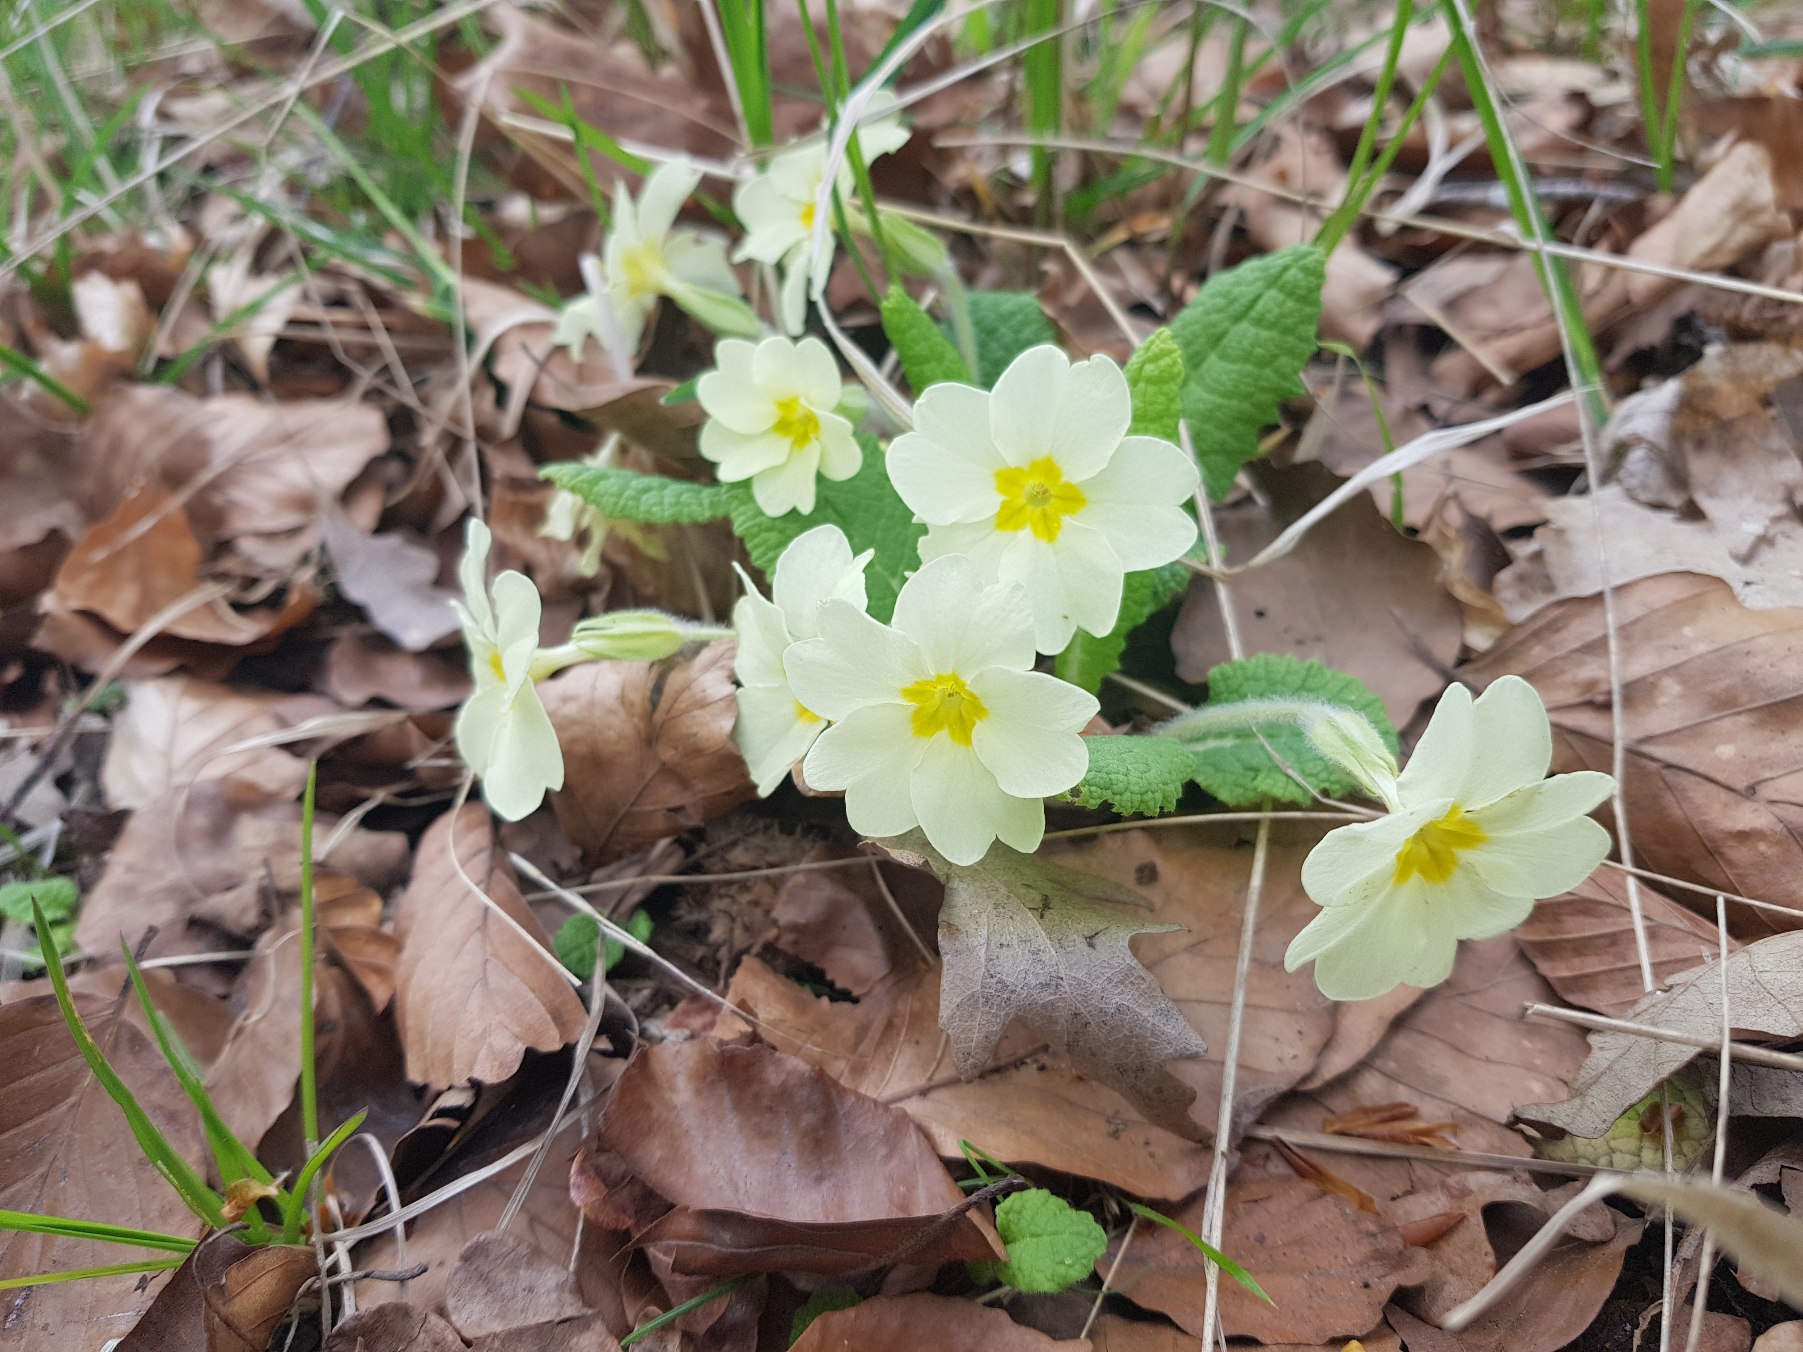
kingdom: Plantae
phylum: Tracheophyta
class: Magnoliopsida
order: Ericales
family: Primulaceae
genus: Primula
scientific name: Primula vulgaris
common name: Storblomstret kodriver
